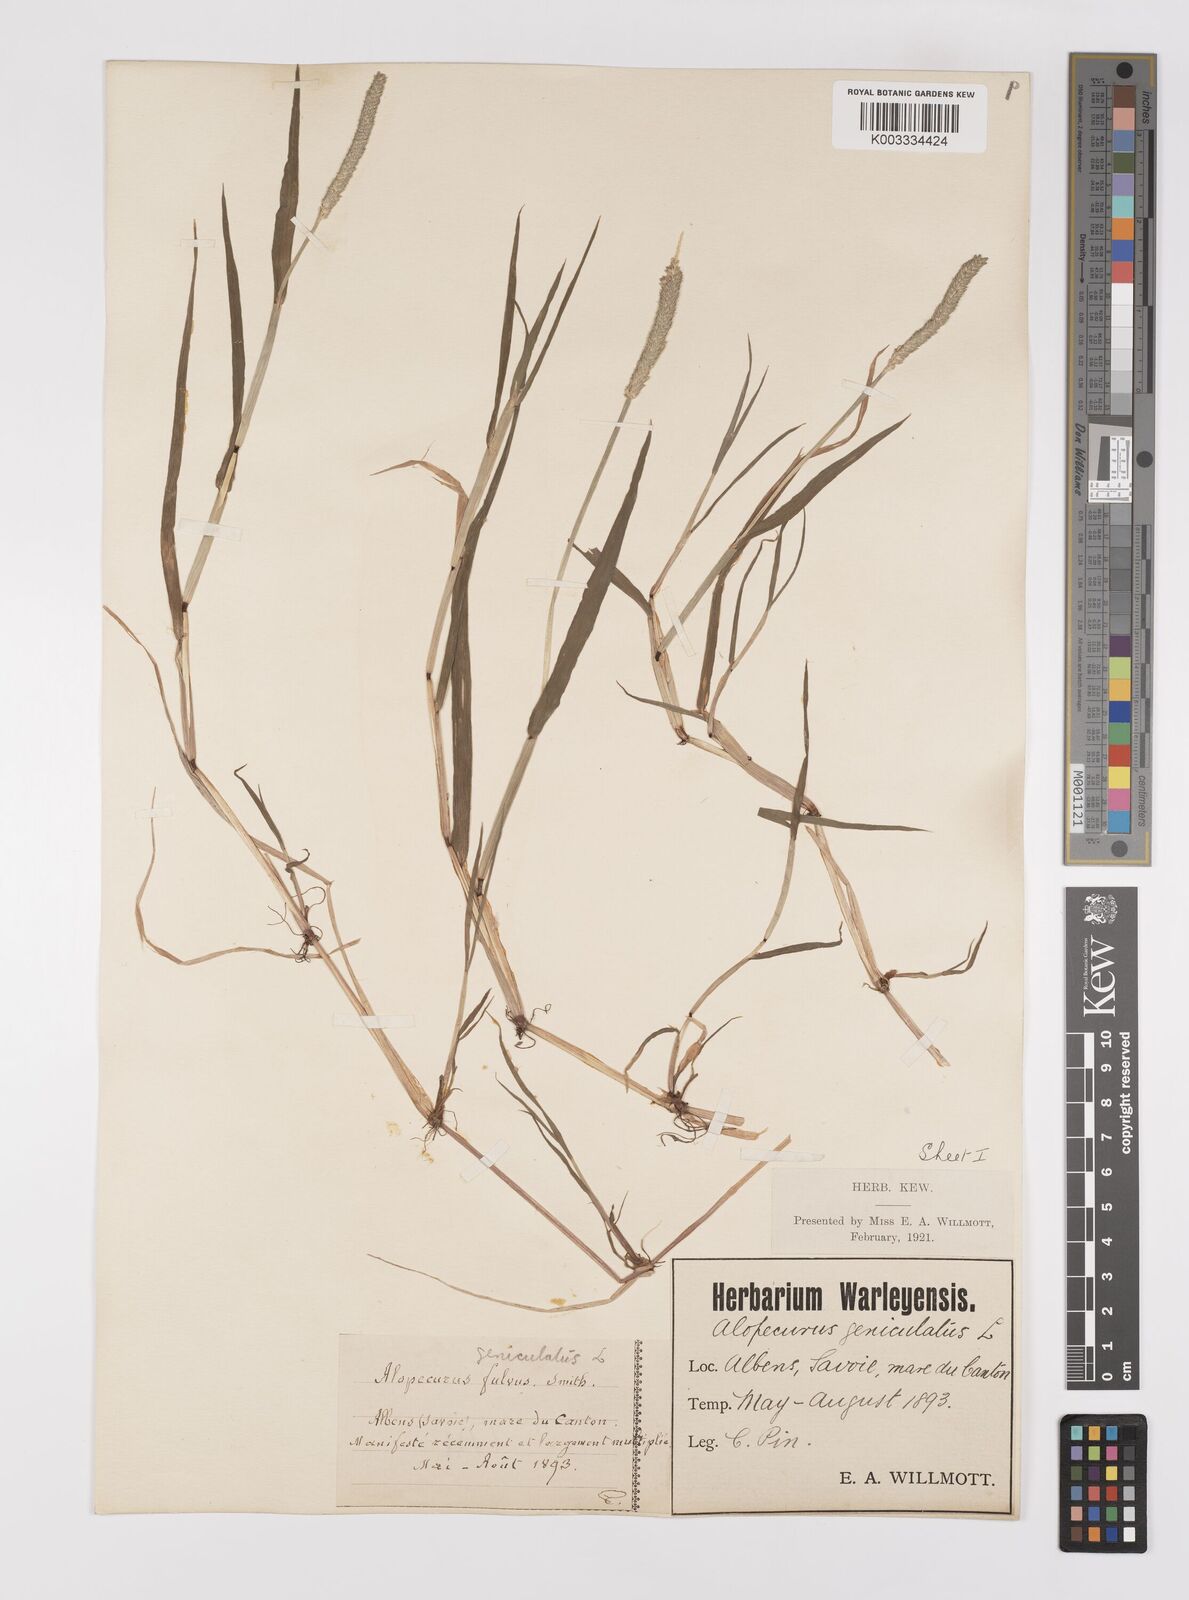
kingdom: Plantae
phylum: Tracheophyta
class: Liliopsida
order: Poales
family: Poaceae
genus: Alopecurus
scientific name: Alopecurus aequalis
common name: Orange foxtail
